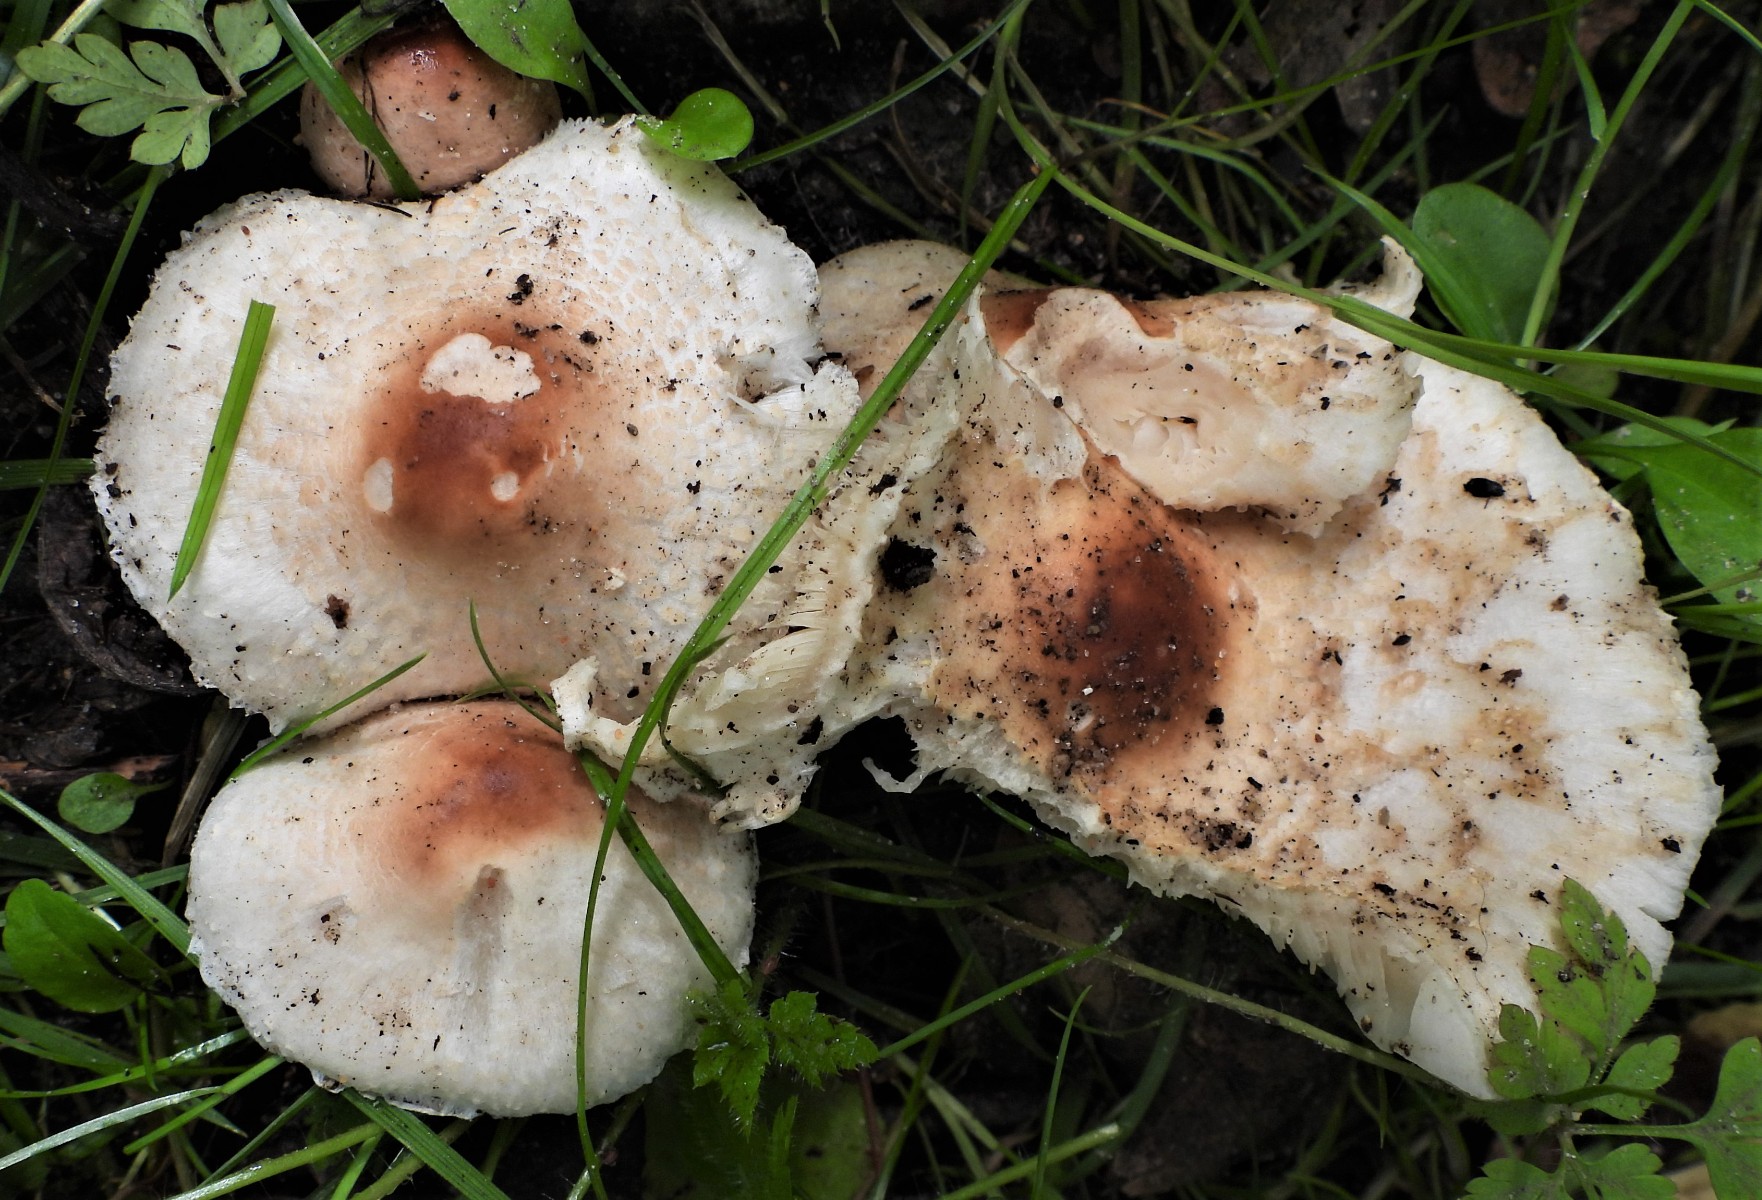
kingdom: Fungi
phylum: Basidiomycota
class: Agaricomycetes
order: Agaricales
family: Agaricaceae
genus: Lepiota
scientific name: Lepiota cristata
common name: stinkende parasolhat
